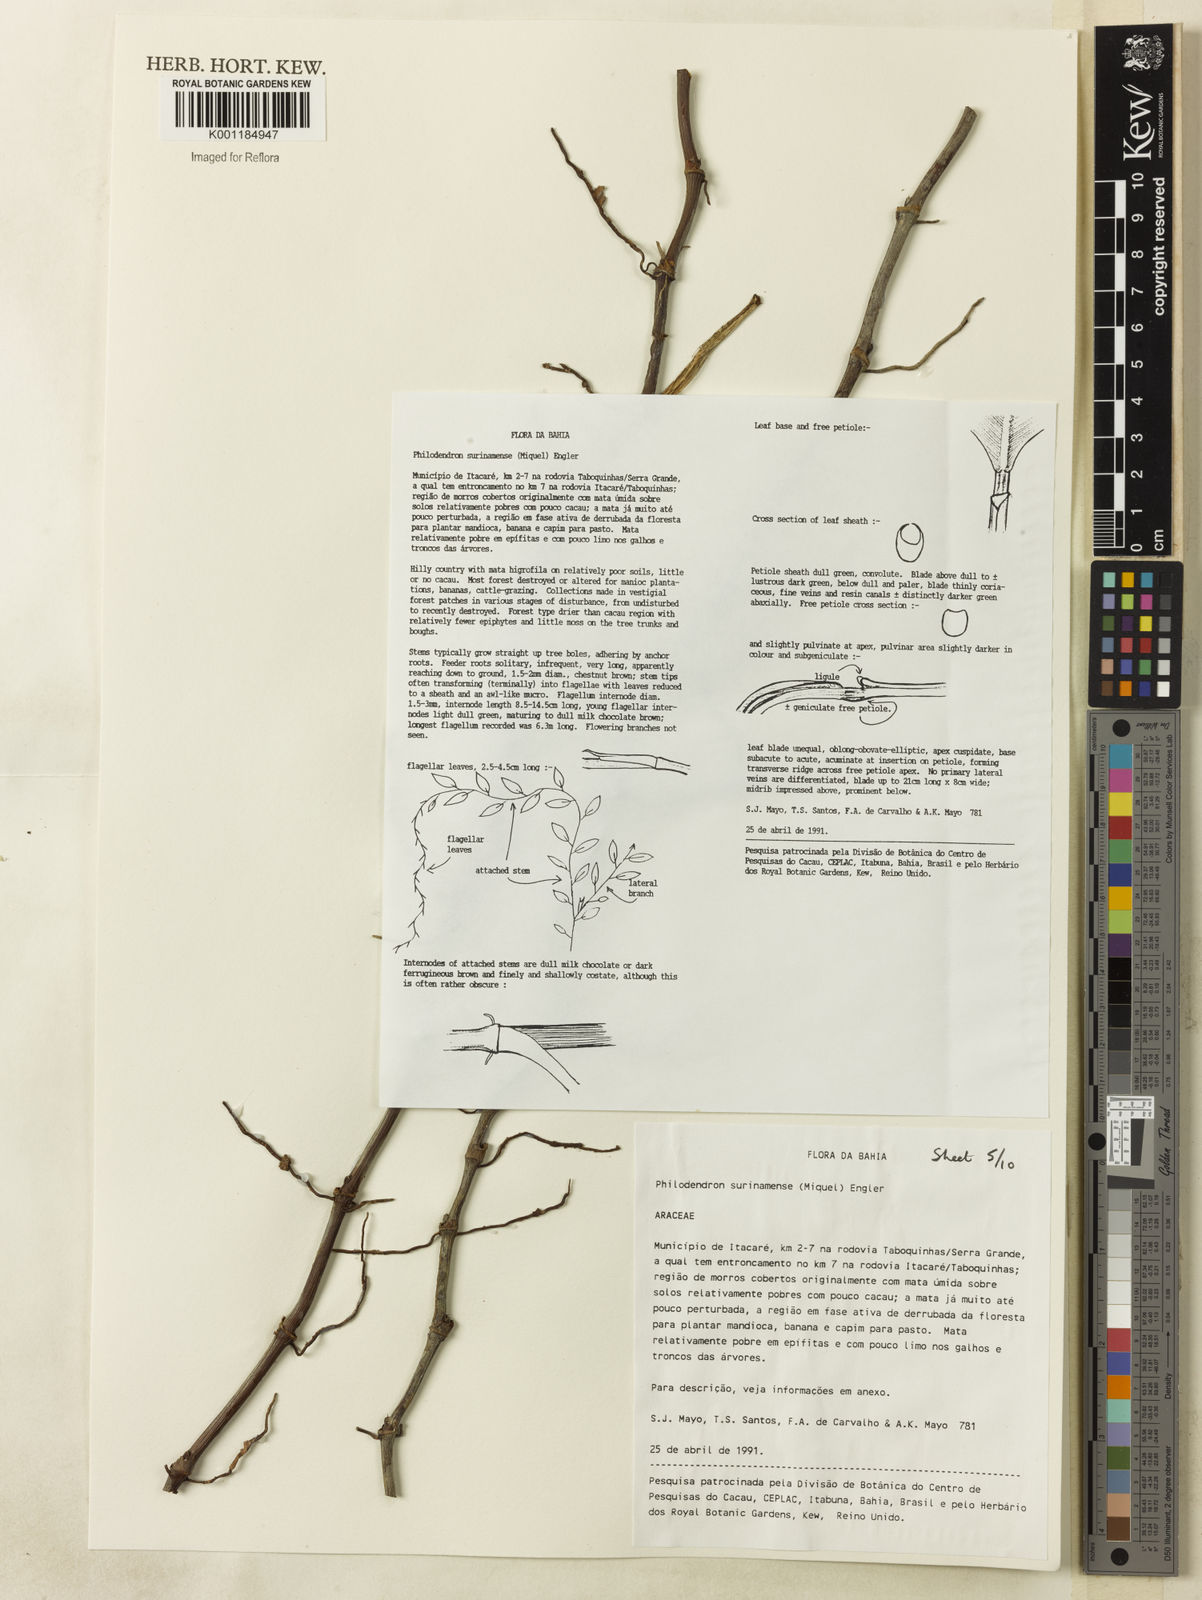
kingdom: Plantae
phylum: Tracheophyta
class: Liliopsida
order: Alismatales
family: Araceae
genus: Philodendron
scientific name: Philodendron surinamense
